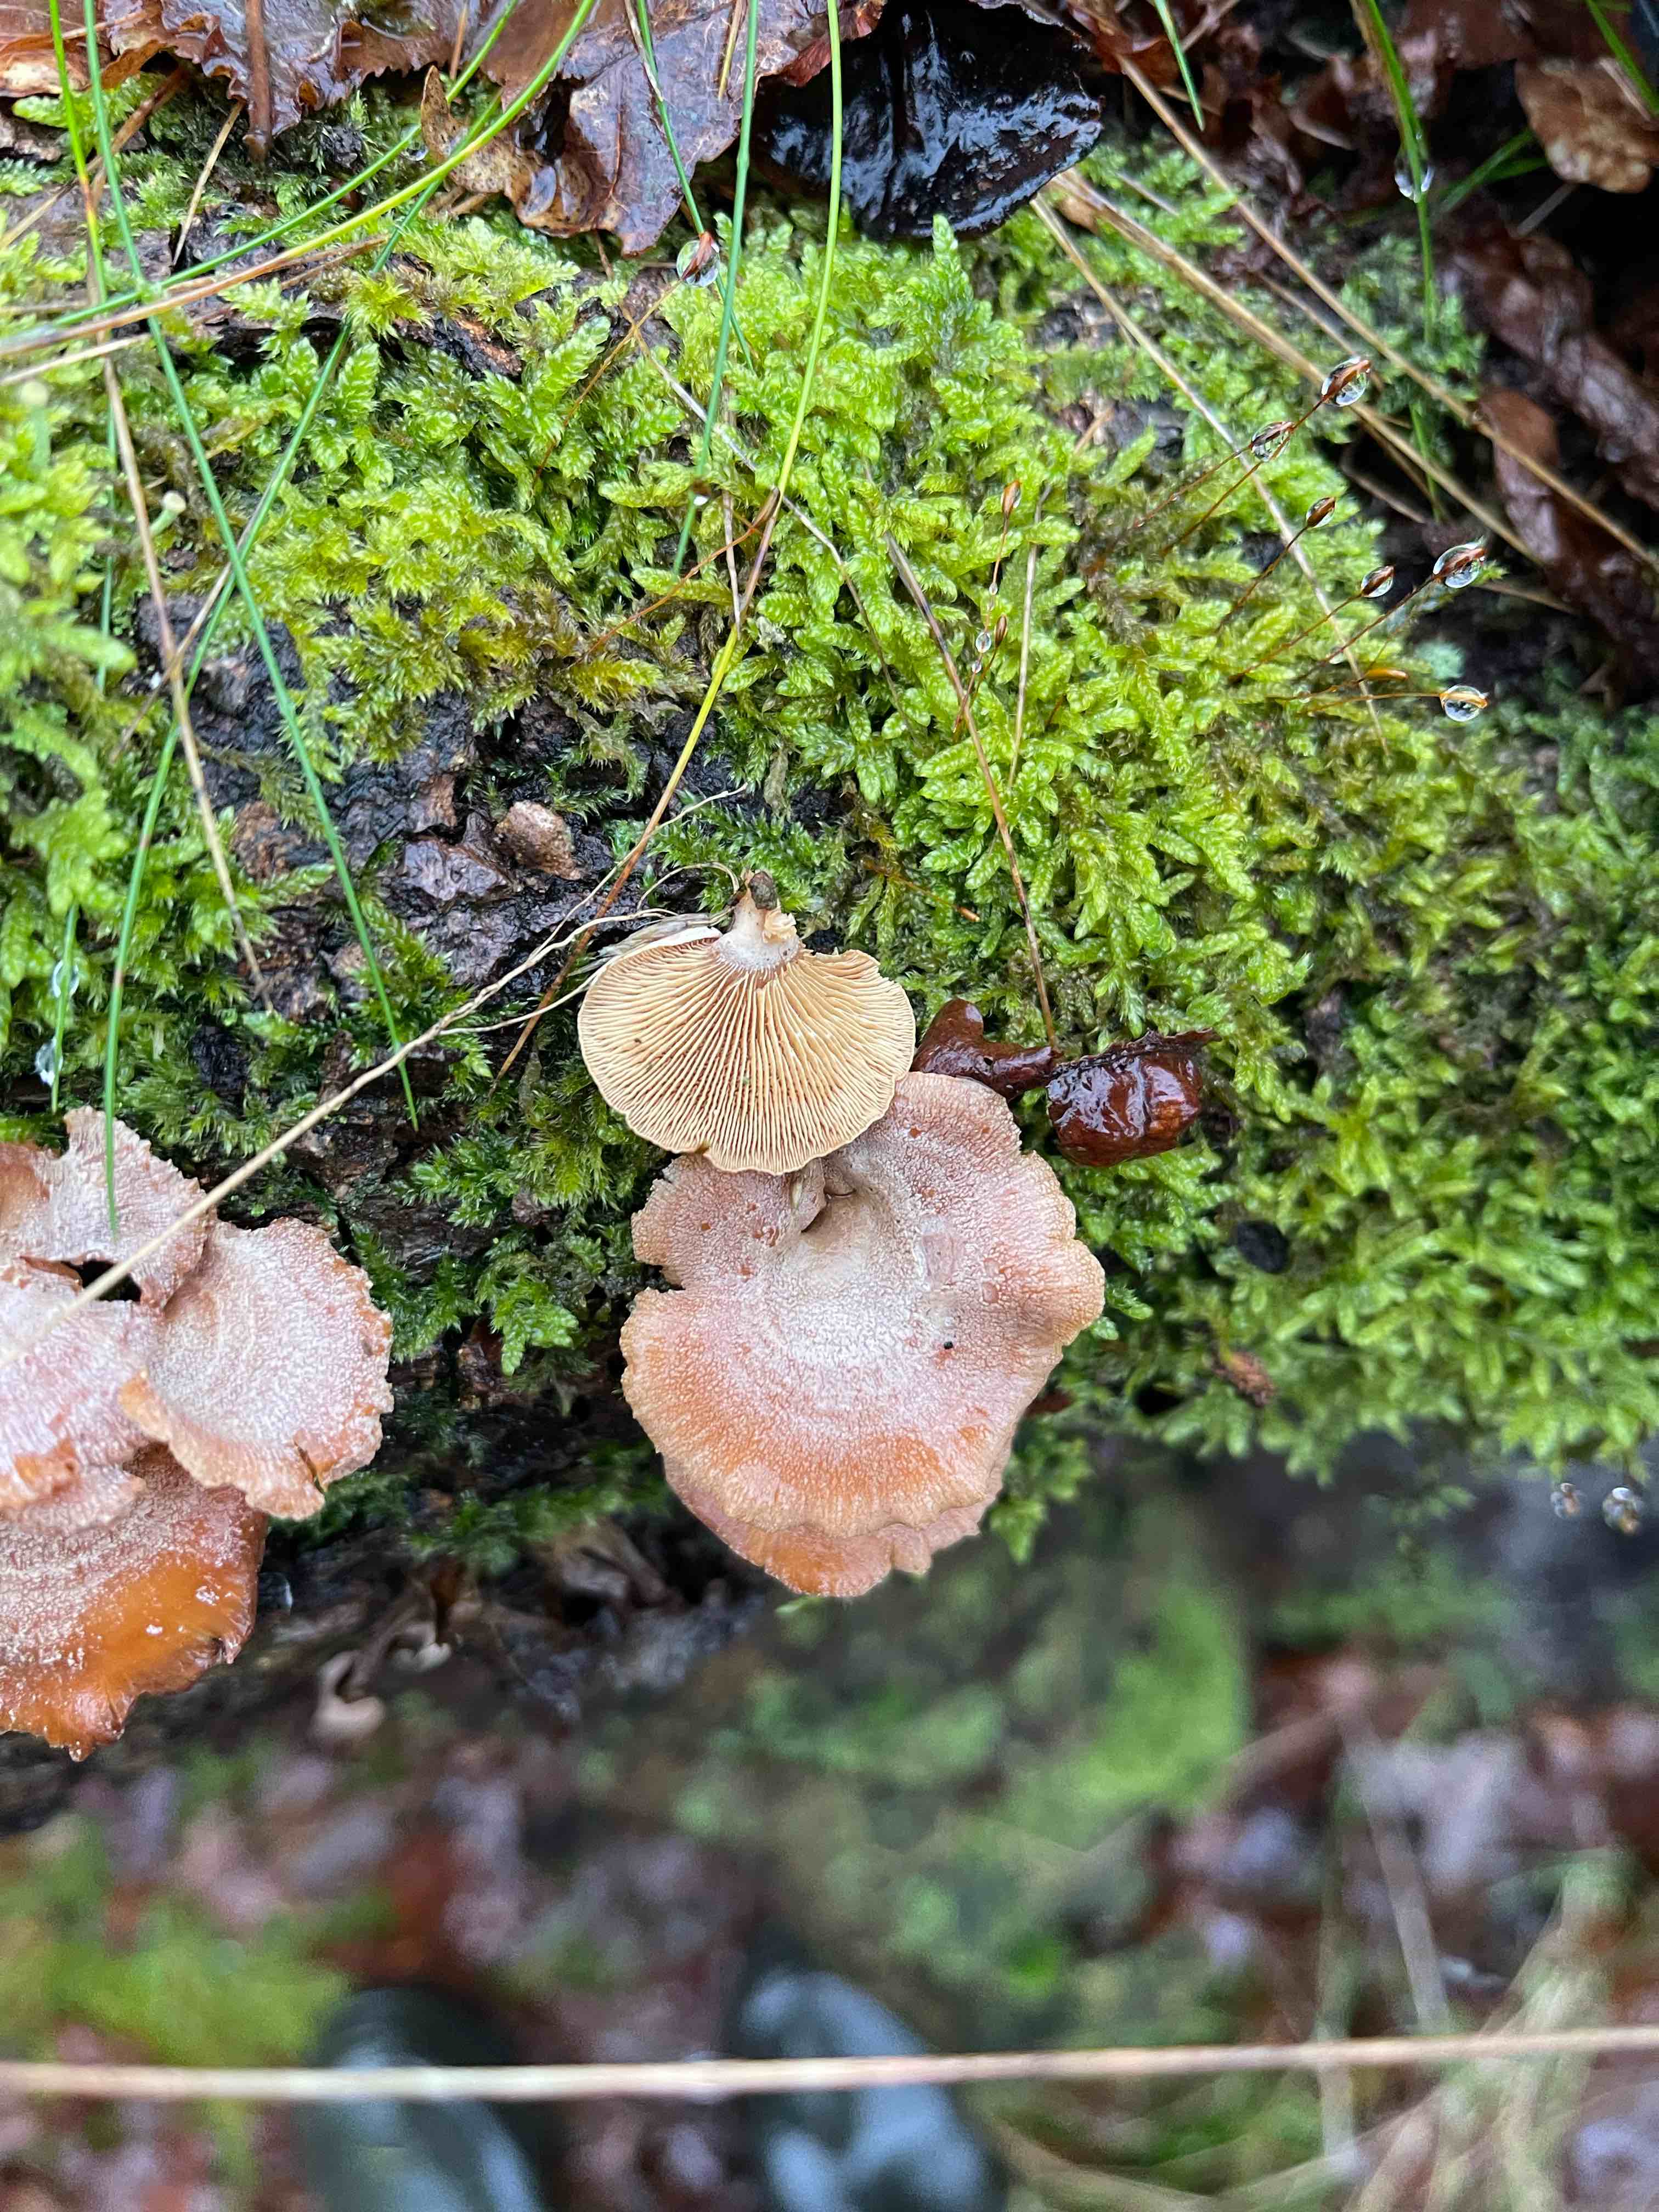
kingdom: Fungi
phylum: Basidiomycota
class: Agaricomycetes
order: Agaricales
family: Mycenaceae
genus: Panellus
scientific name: Panellus stipticus
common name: kliddet epaulethat
